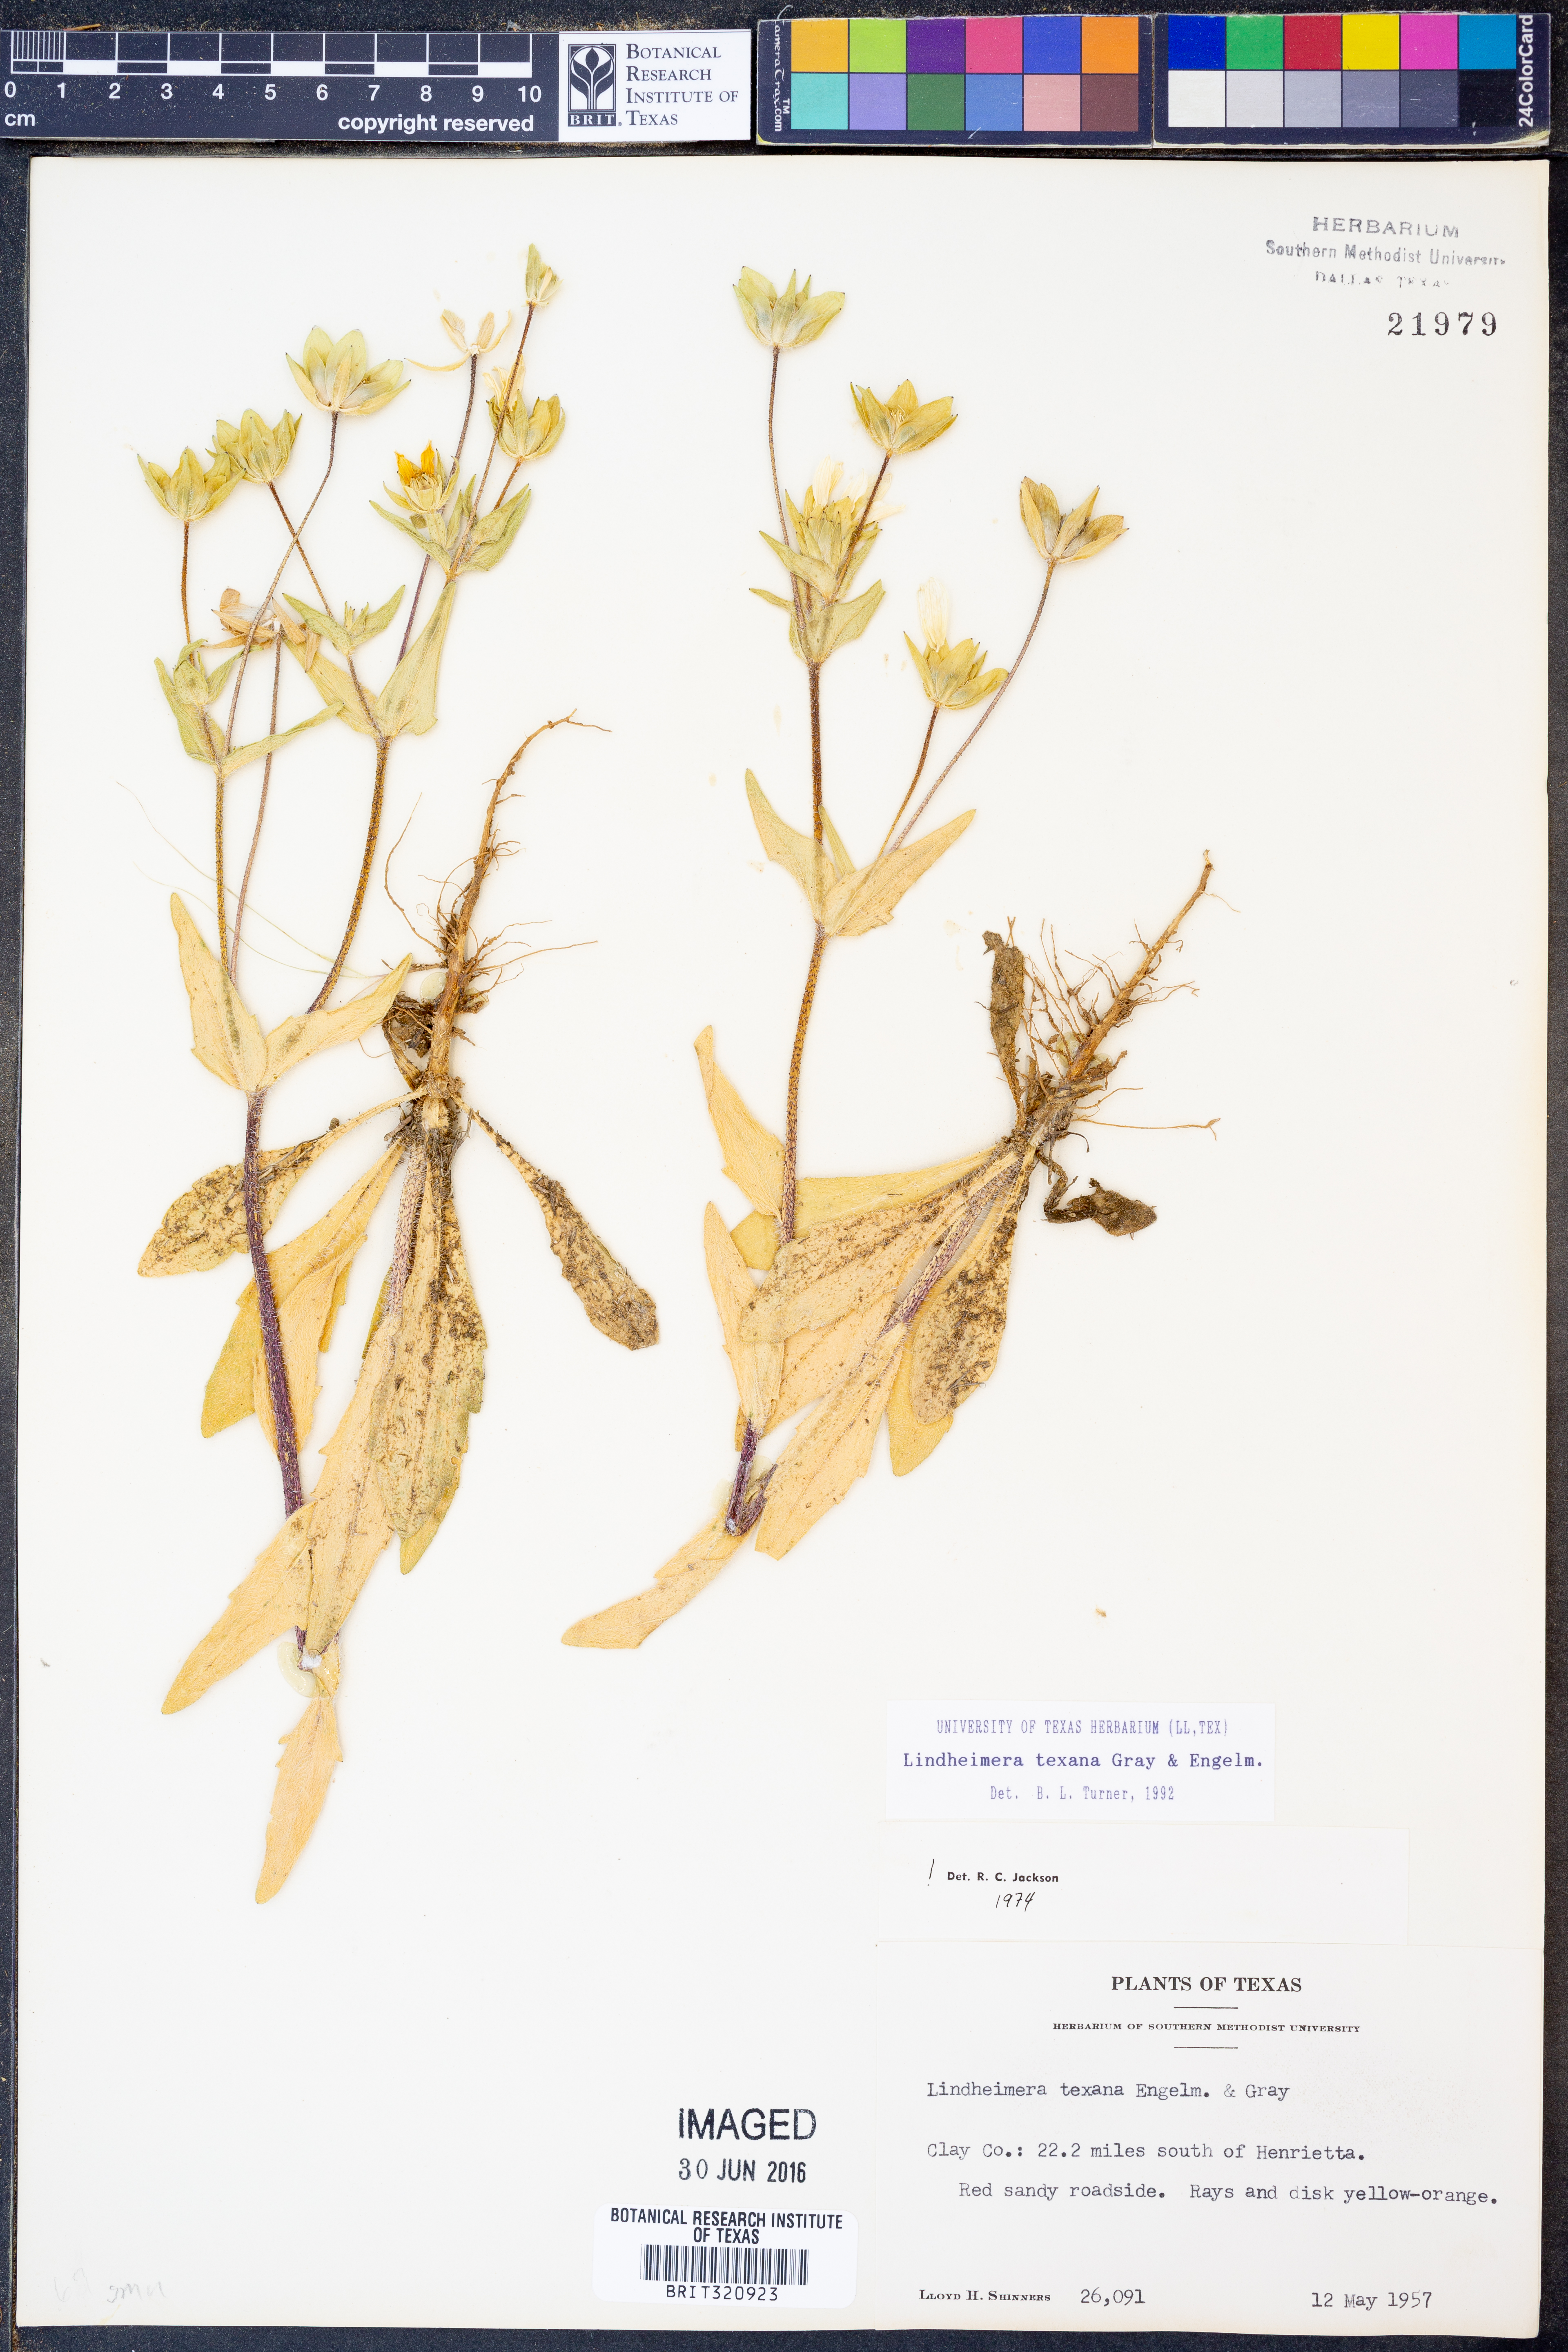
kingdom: Plantae
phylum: Tracheophyta
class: Magnoliopsida
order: Asterales
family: Asteraceae
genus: Lindheimera
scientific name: Lindheimera texana
